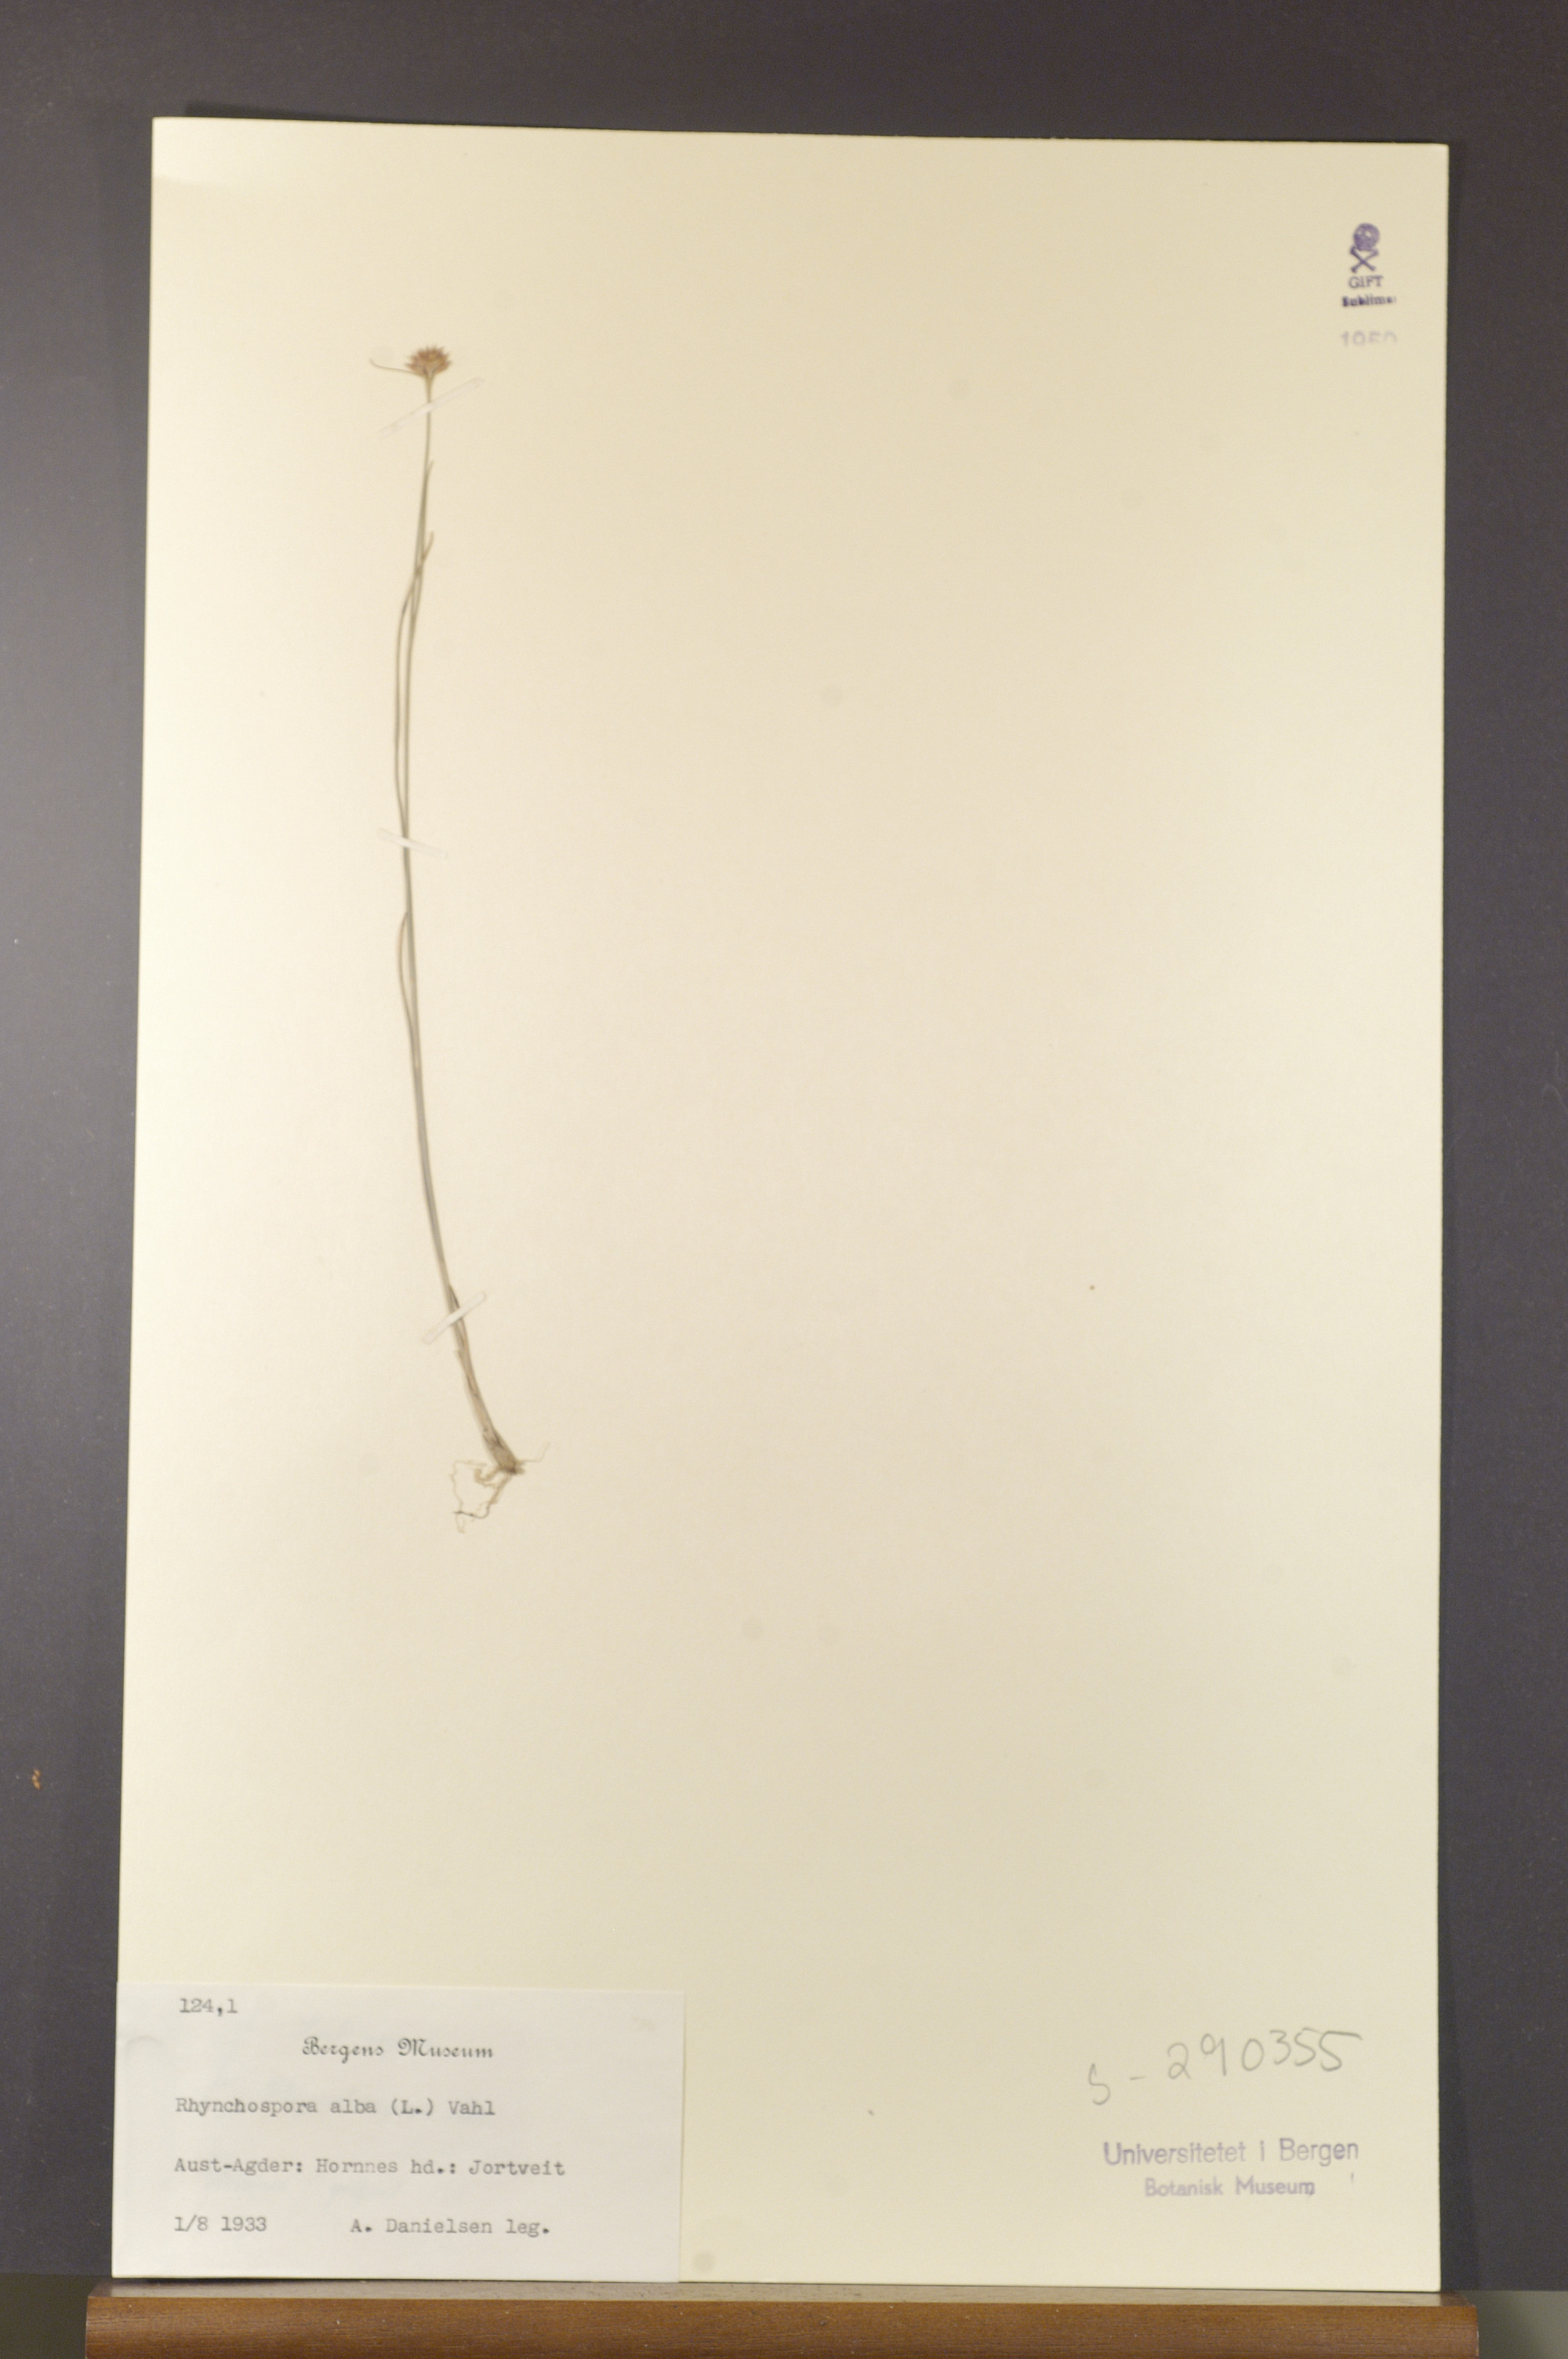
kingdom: Plantae
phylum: Tracheophyta
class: Liliopsida
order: Poales
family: Cyperaceae
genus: Rhynchospora
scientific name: Rhynchospora alba
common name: White beak-sedge
